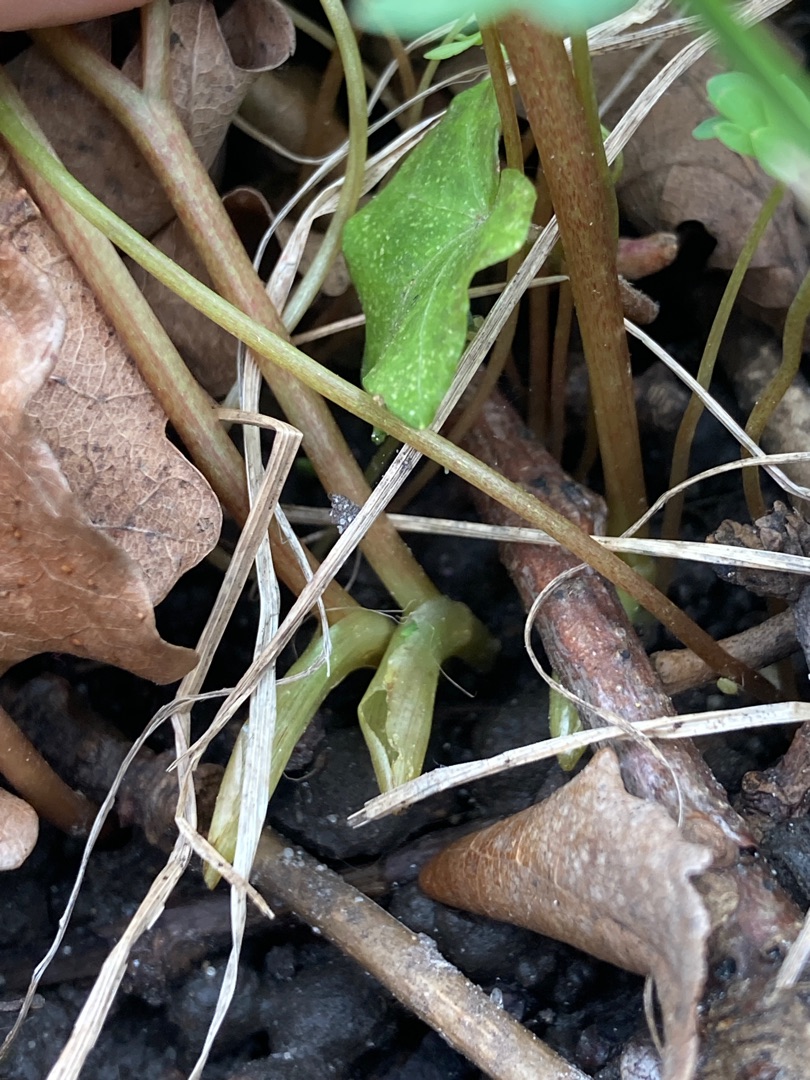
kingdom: Plantae
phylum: Tracheophyta
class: Magnoliopsida
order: Ranunculales
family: Papaveraceae
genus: Corydalis
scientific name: Corydalis solida
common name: Langstilket lærkespore
